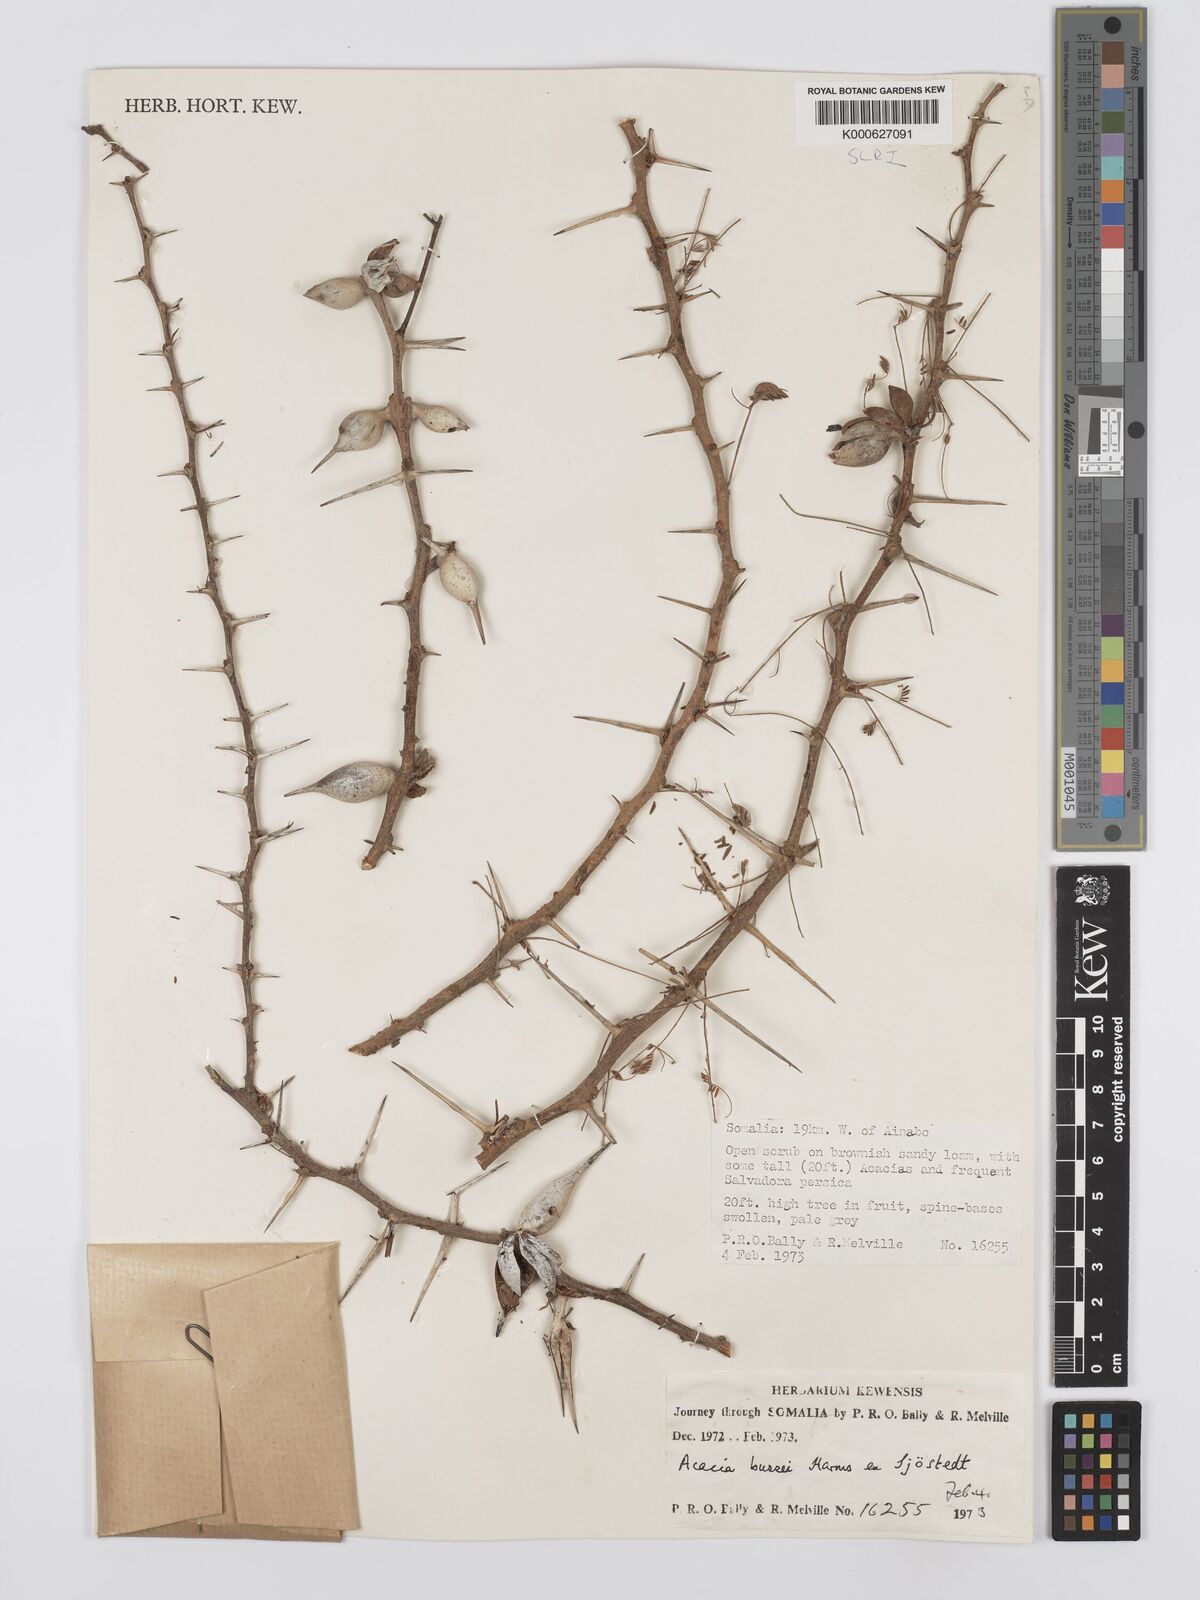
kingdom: Plantae
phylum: Tracheophyta
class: Magnoliopsida
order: Fabales
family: Fabaceae
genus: Vachellia
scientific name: Vachellia bussei
